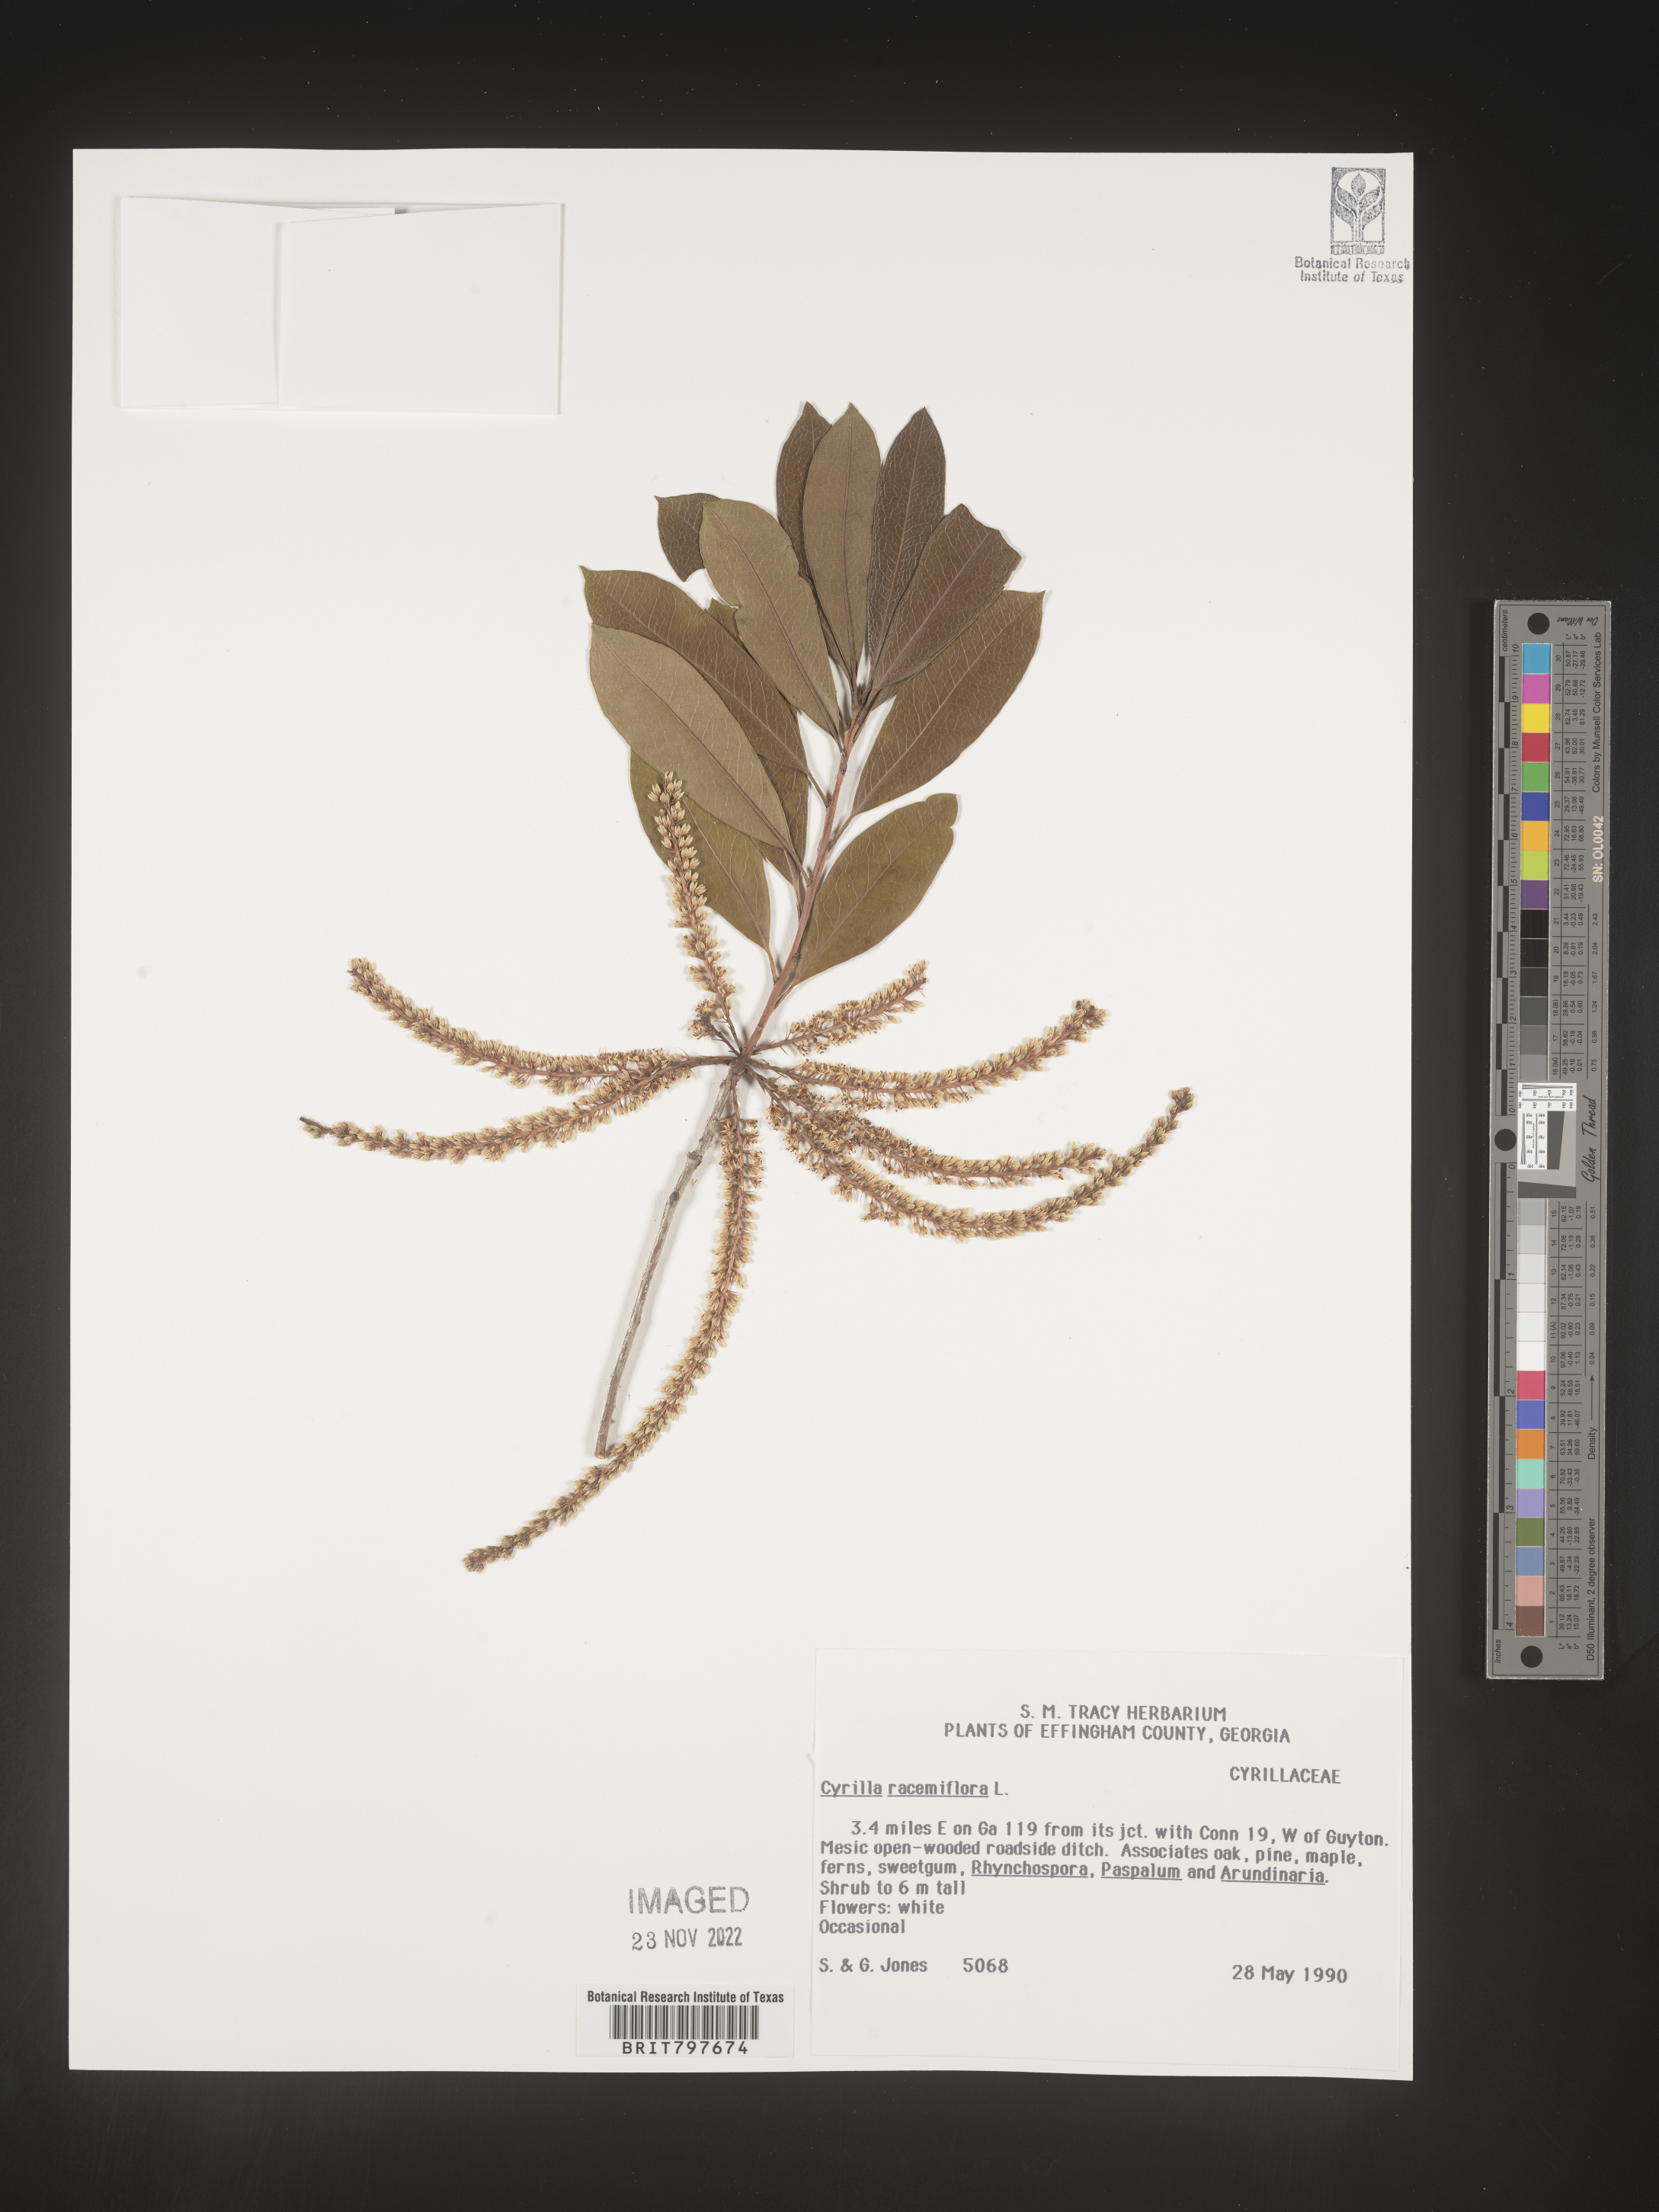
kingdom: Plantae
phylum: Tracheophyta
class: Magnoliopsida
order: Ericales
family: Cyrillaceae
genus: Cyrilla
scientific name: Cyrilla racemiflora
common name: Black titi
